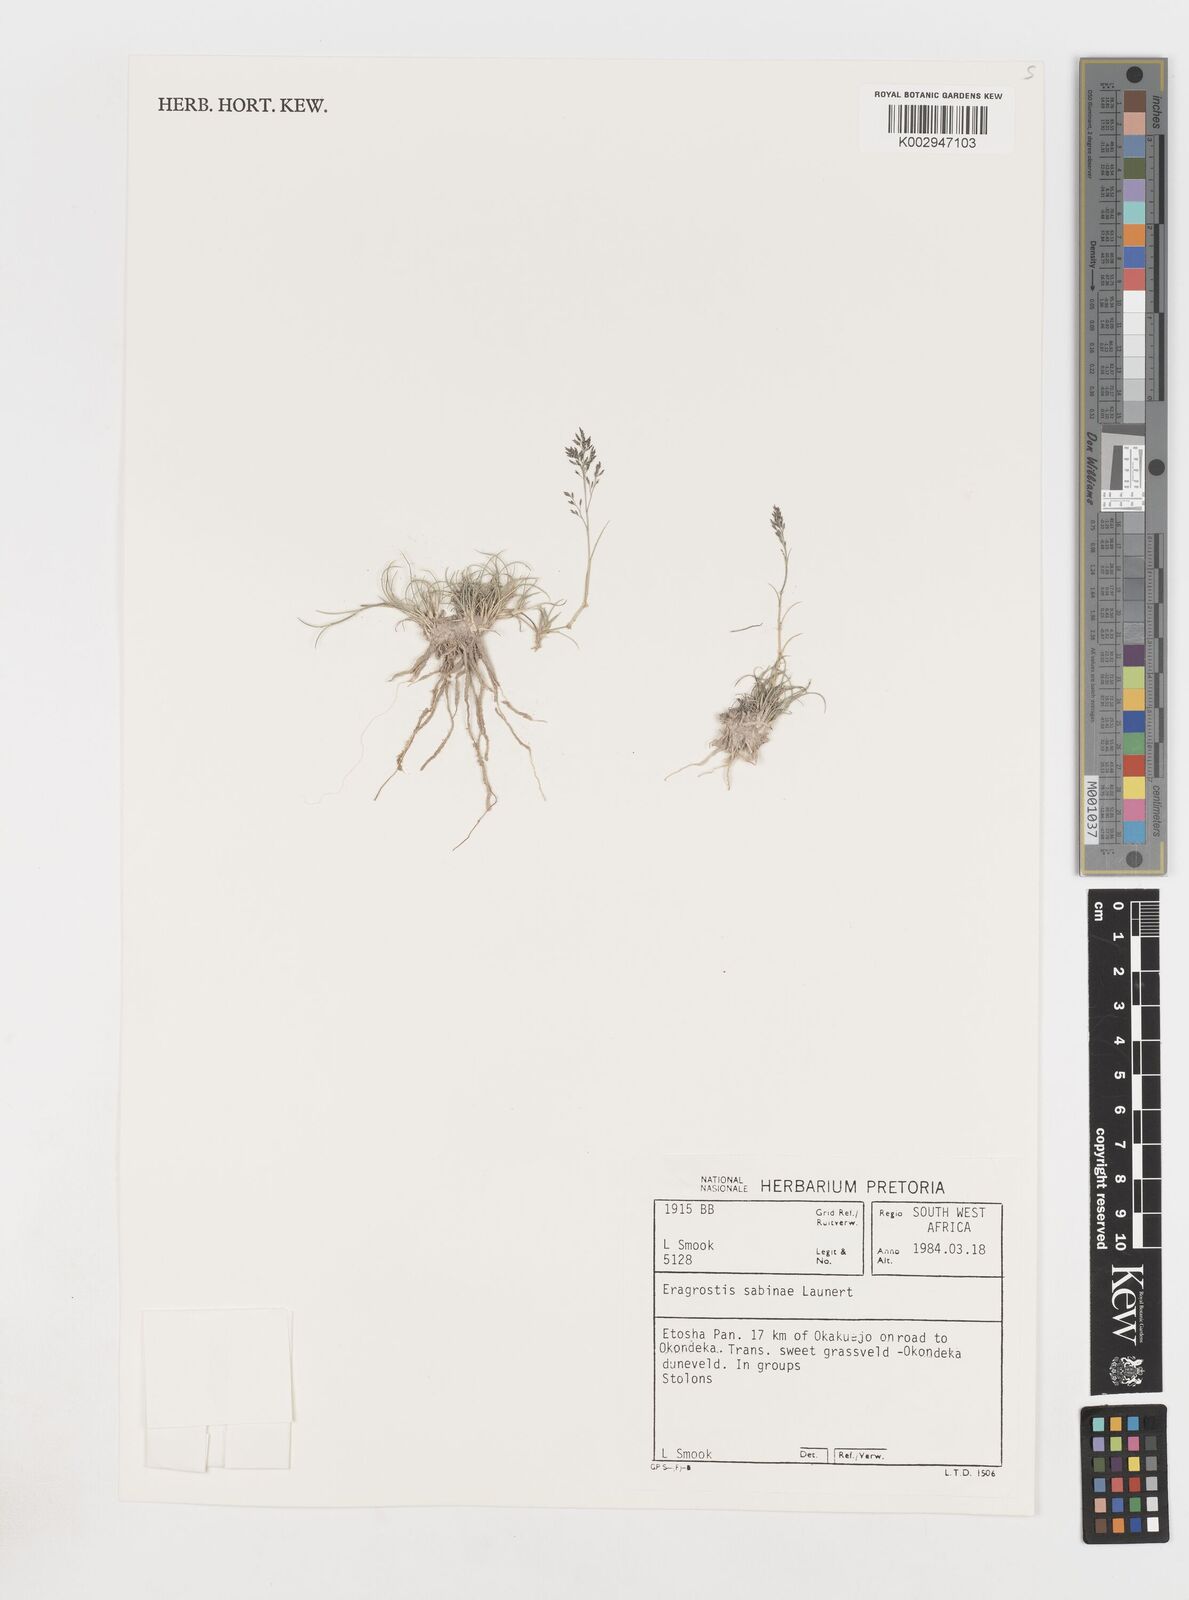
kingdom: Plantae
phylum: Tracheophyta
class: Liliopsida
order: Poales
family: Poaceae
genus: Eragrostis
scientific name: Eragrostis sabinae
